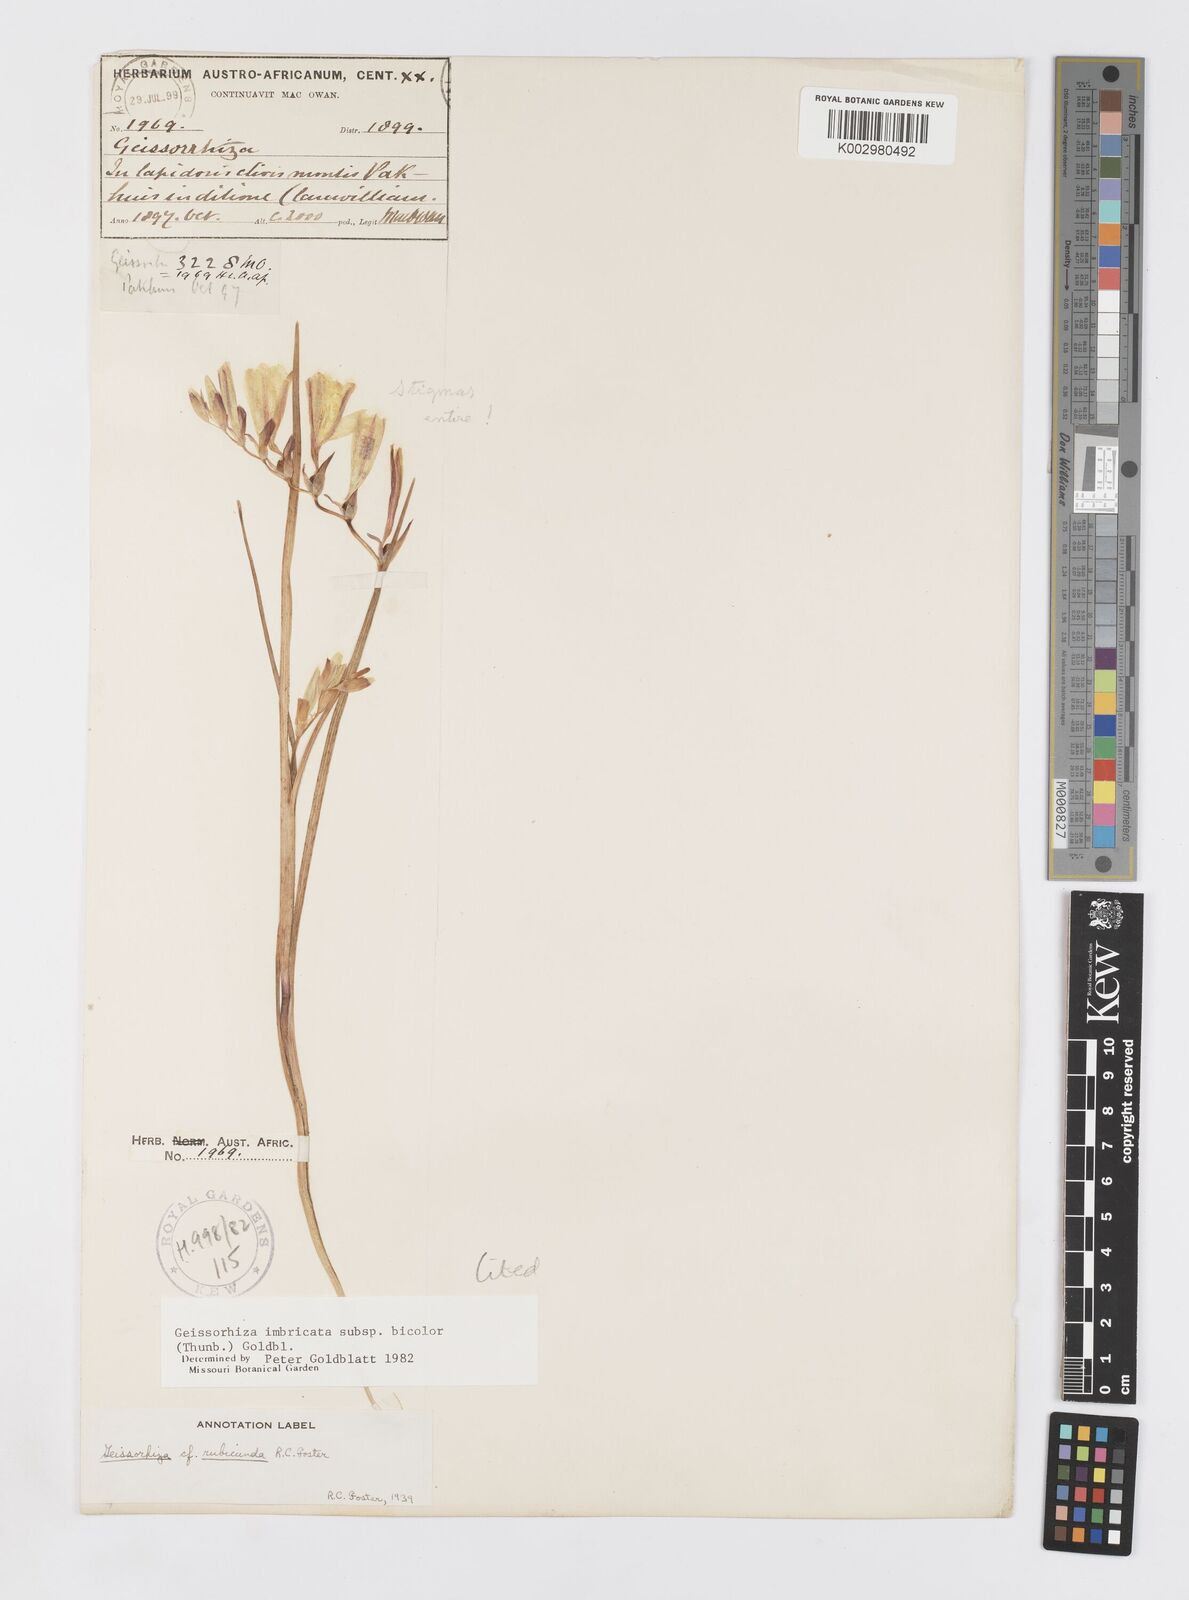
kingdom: Plantae
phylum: Tracheophyta
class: Liliopsida
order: Asparagales
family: Iridaceae
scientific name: Iridaceae
